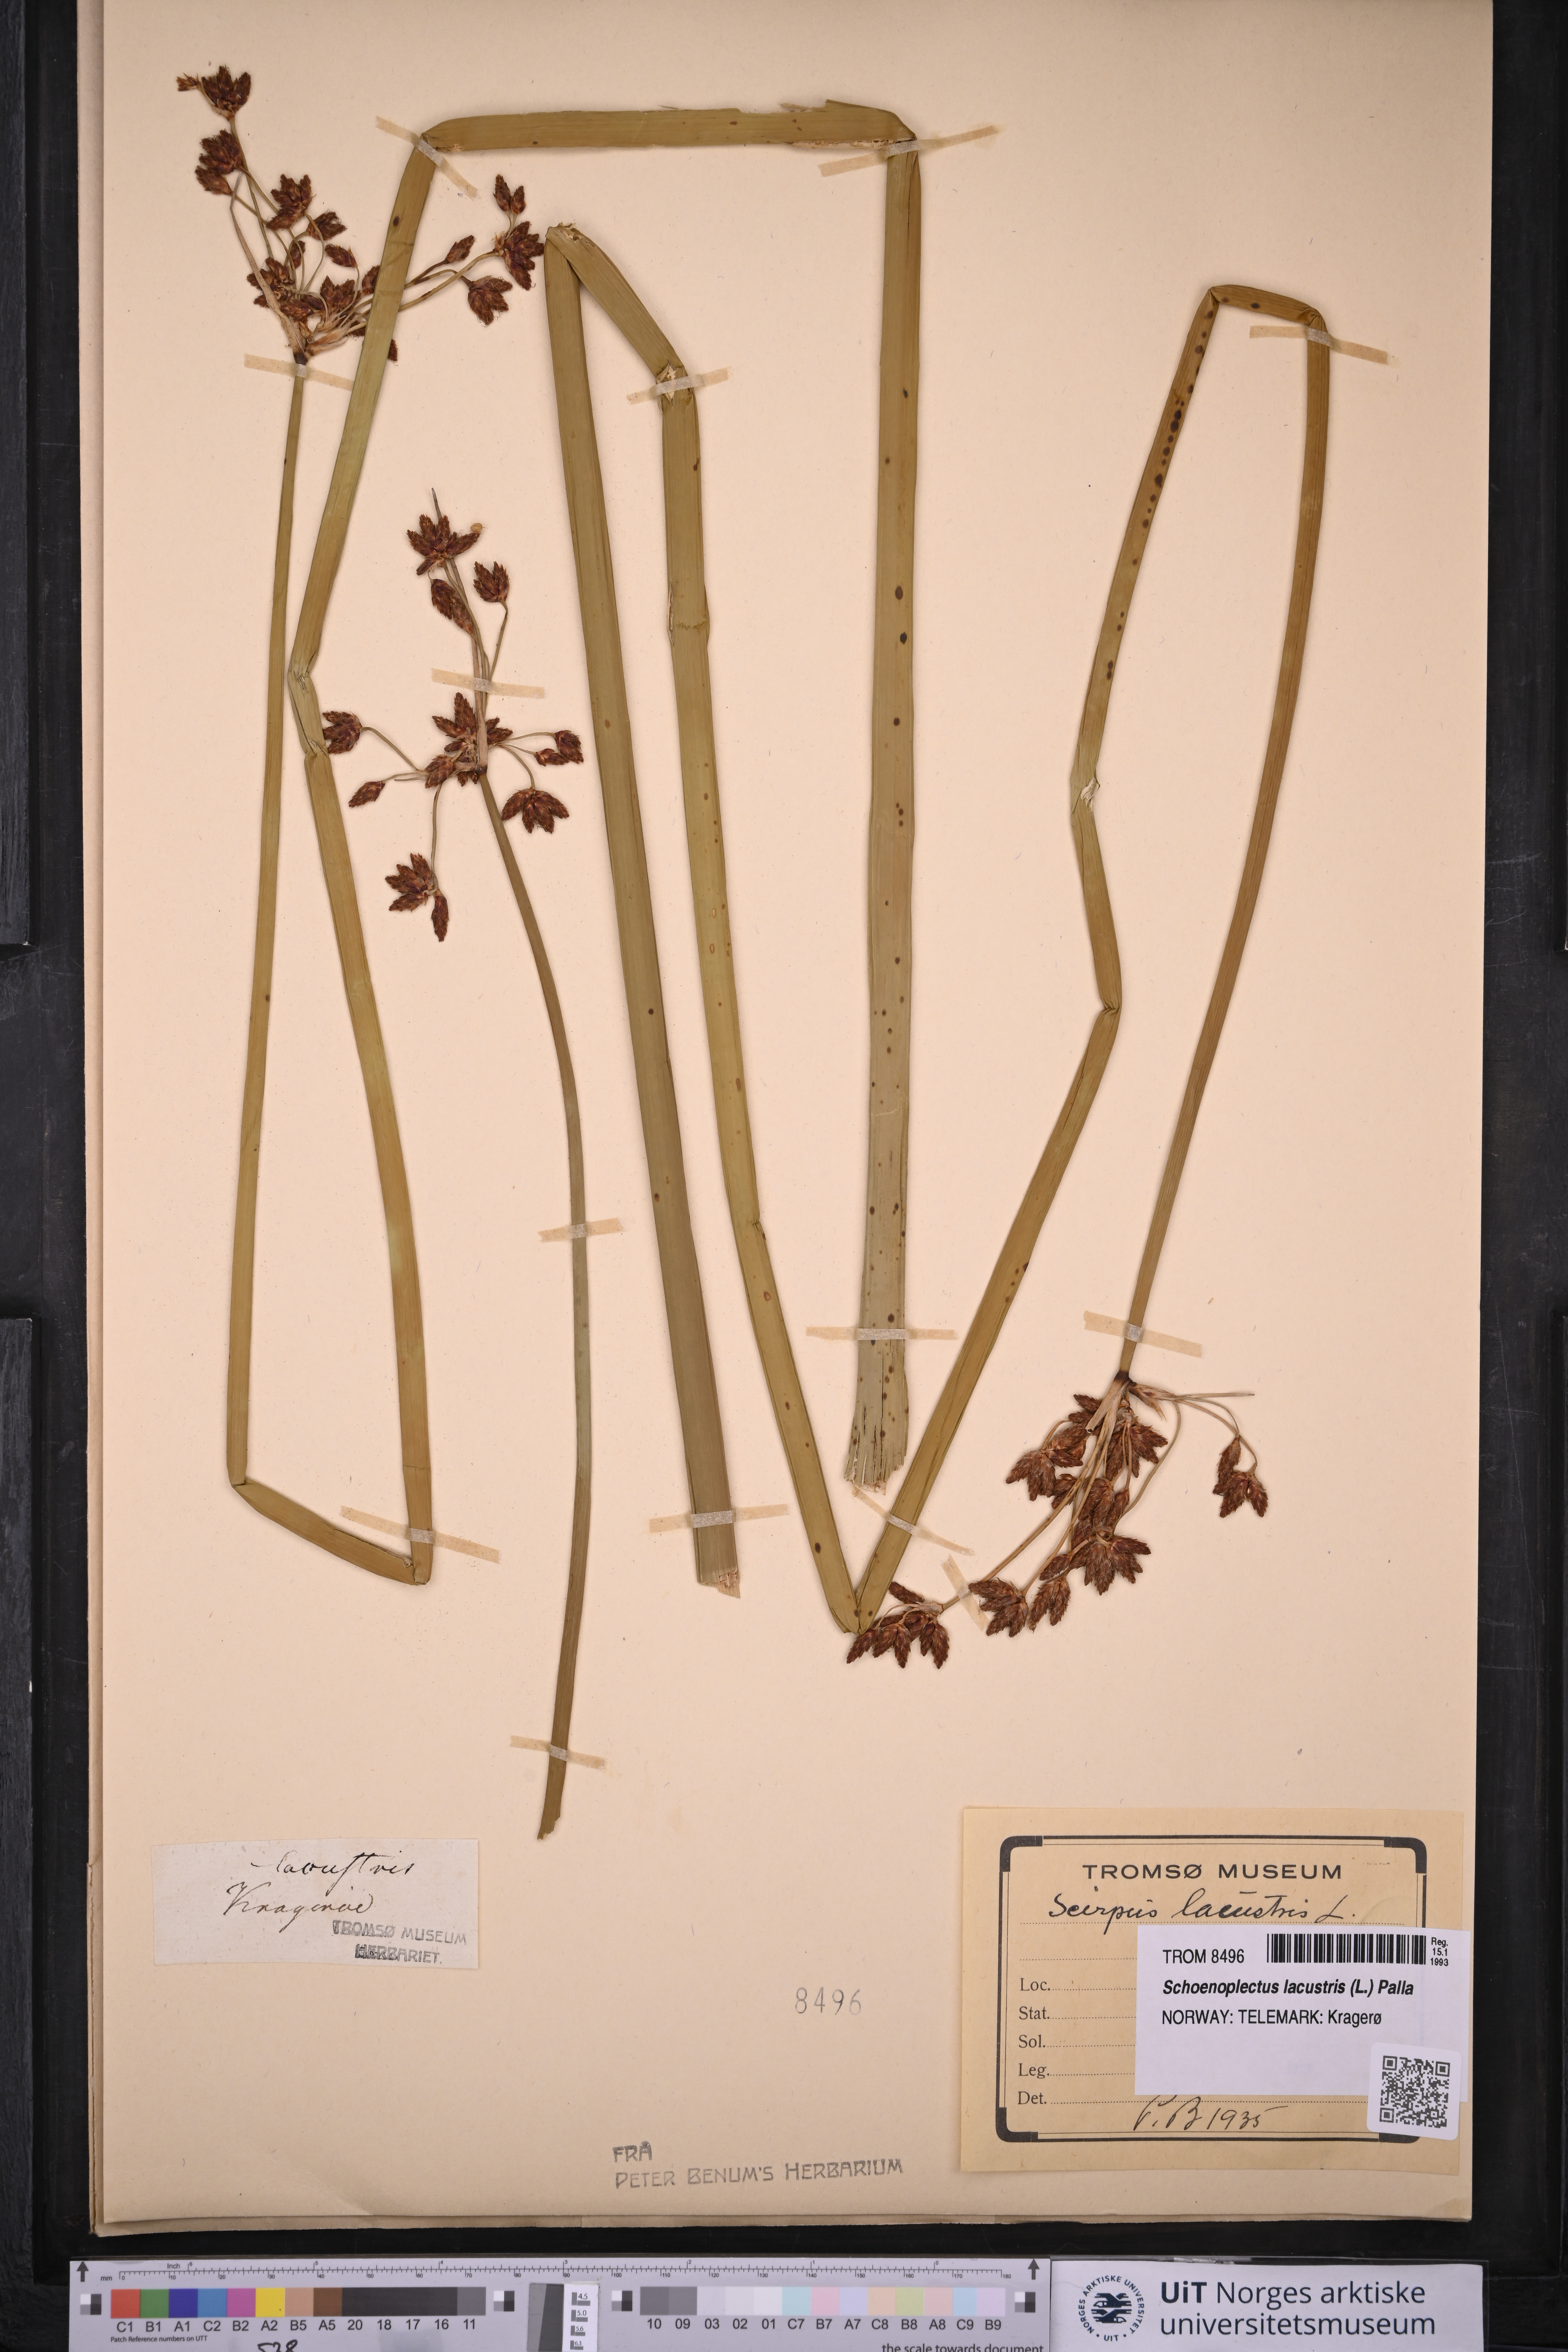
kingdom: Plantae
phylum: Tracheophyta
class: Liliopsida
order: Poales
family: Cyperaceae
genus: Schoenoplectus
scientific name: Schoenoplectus lacustris
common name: Common club-rush
